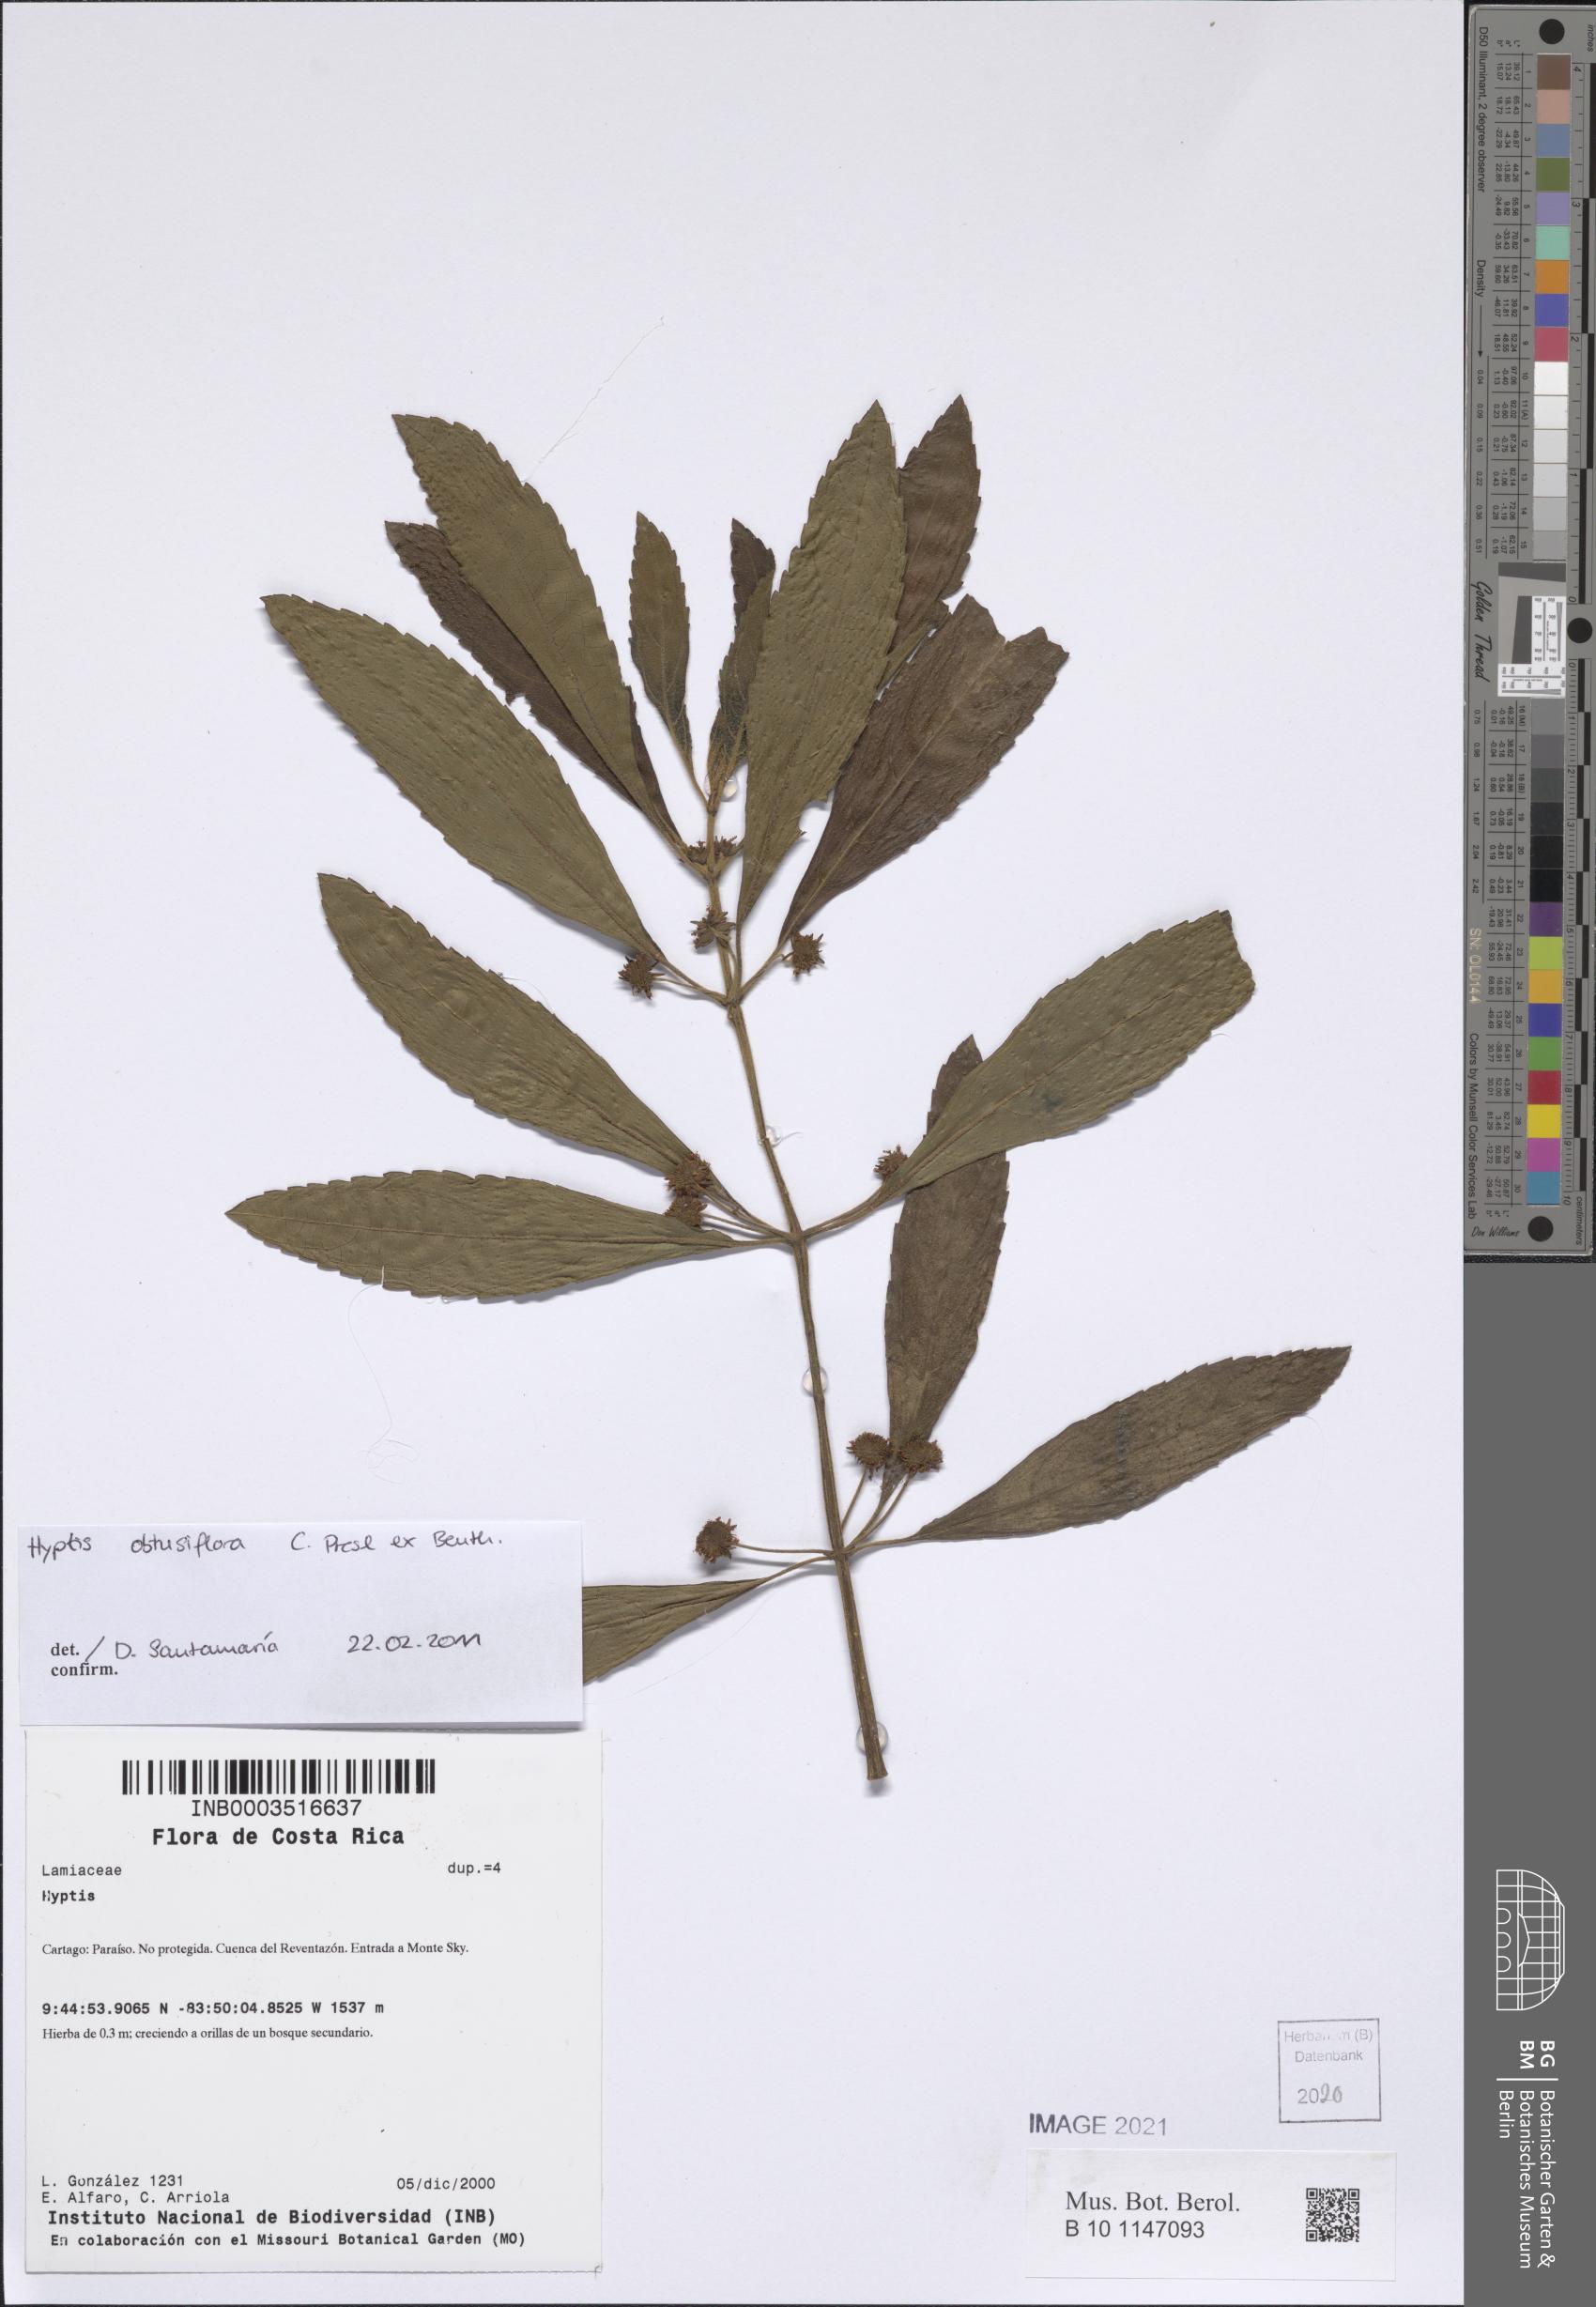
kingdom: Plantae
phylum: Tracheophyta
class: Magnoliopsida
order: Lamiales
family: Lamiaceae
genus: Hyptis
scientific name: Hyptis obtusiflora
